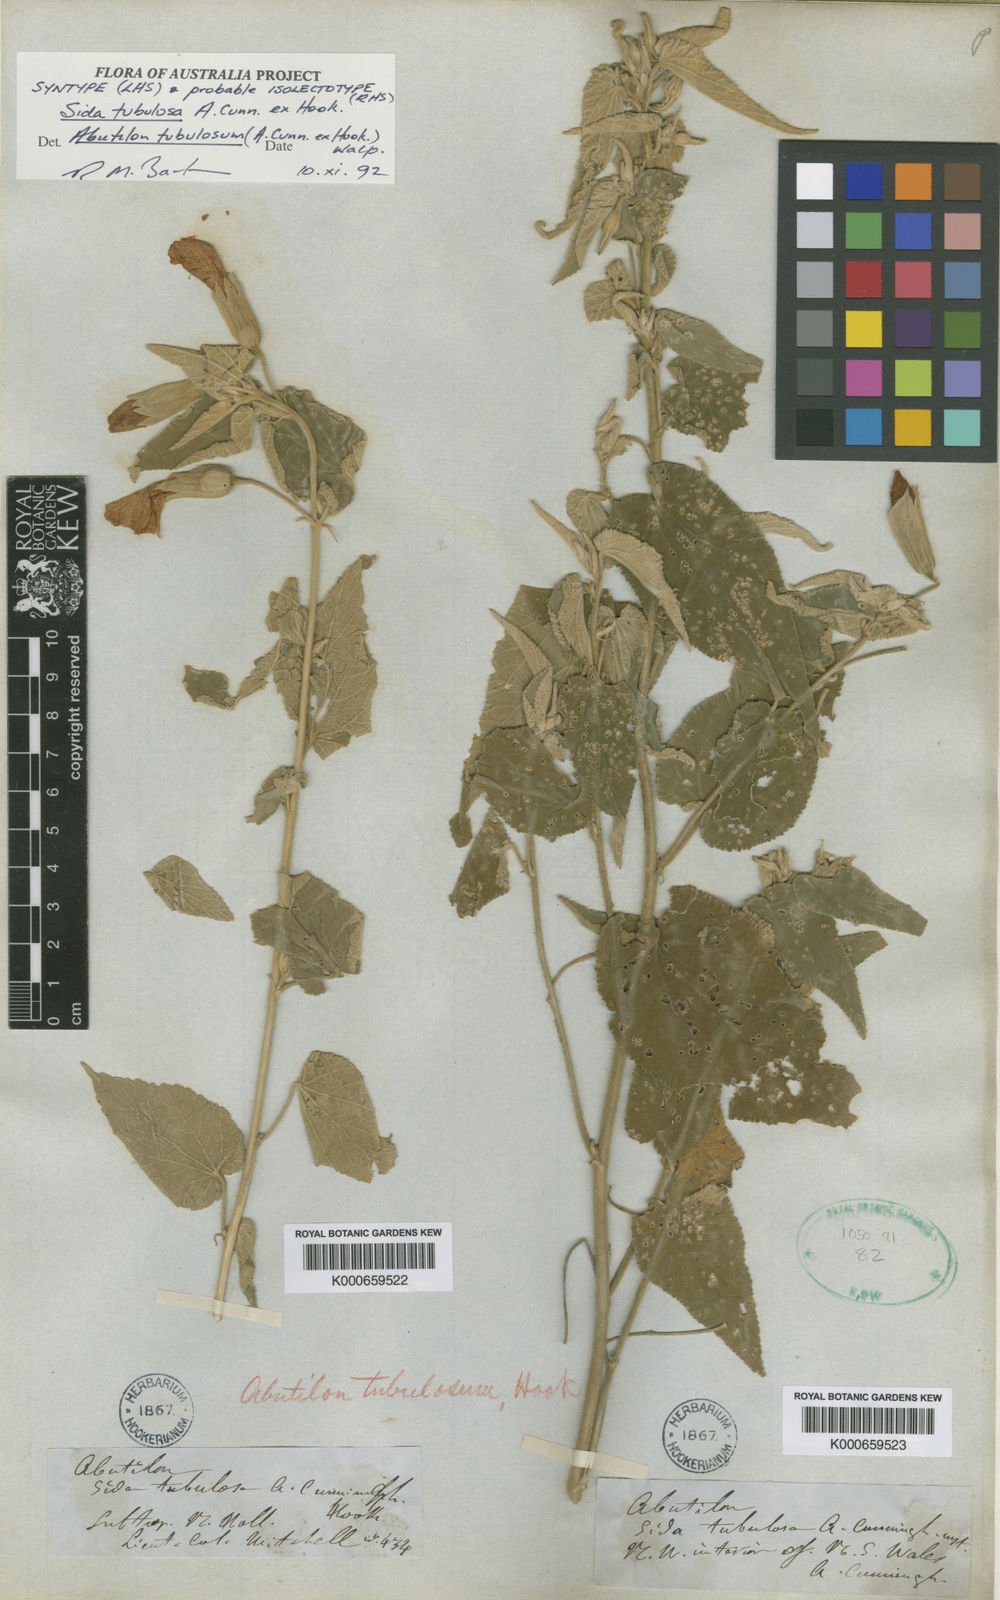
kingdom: Plantae
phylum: Tracheophyta
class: Magnoliopsida
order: Malvales
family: Malvaceae
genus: Abutilon
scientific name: Abutilon tubulosum
